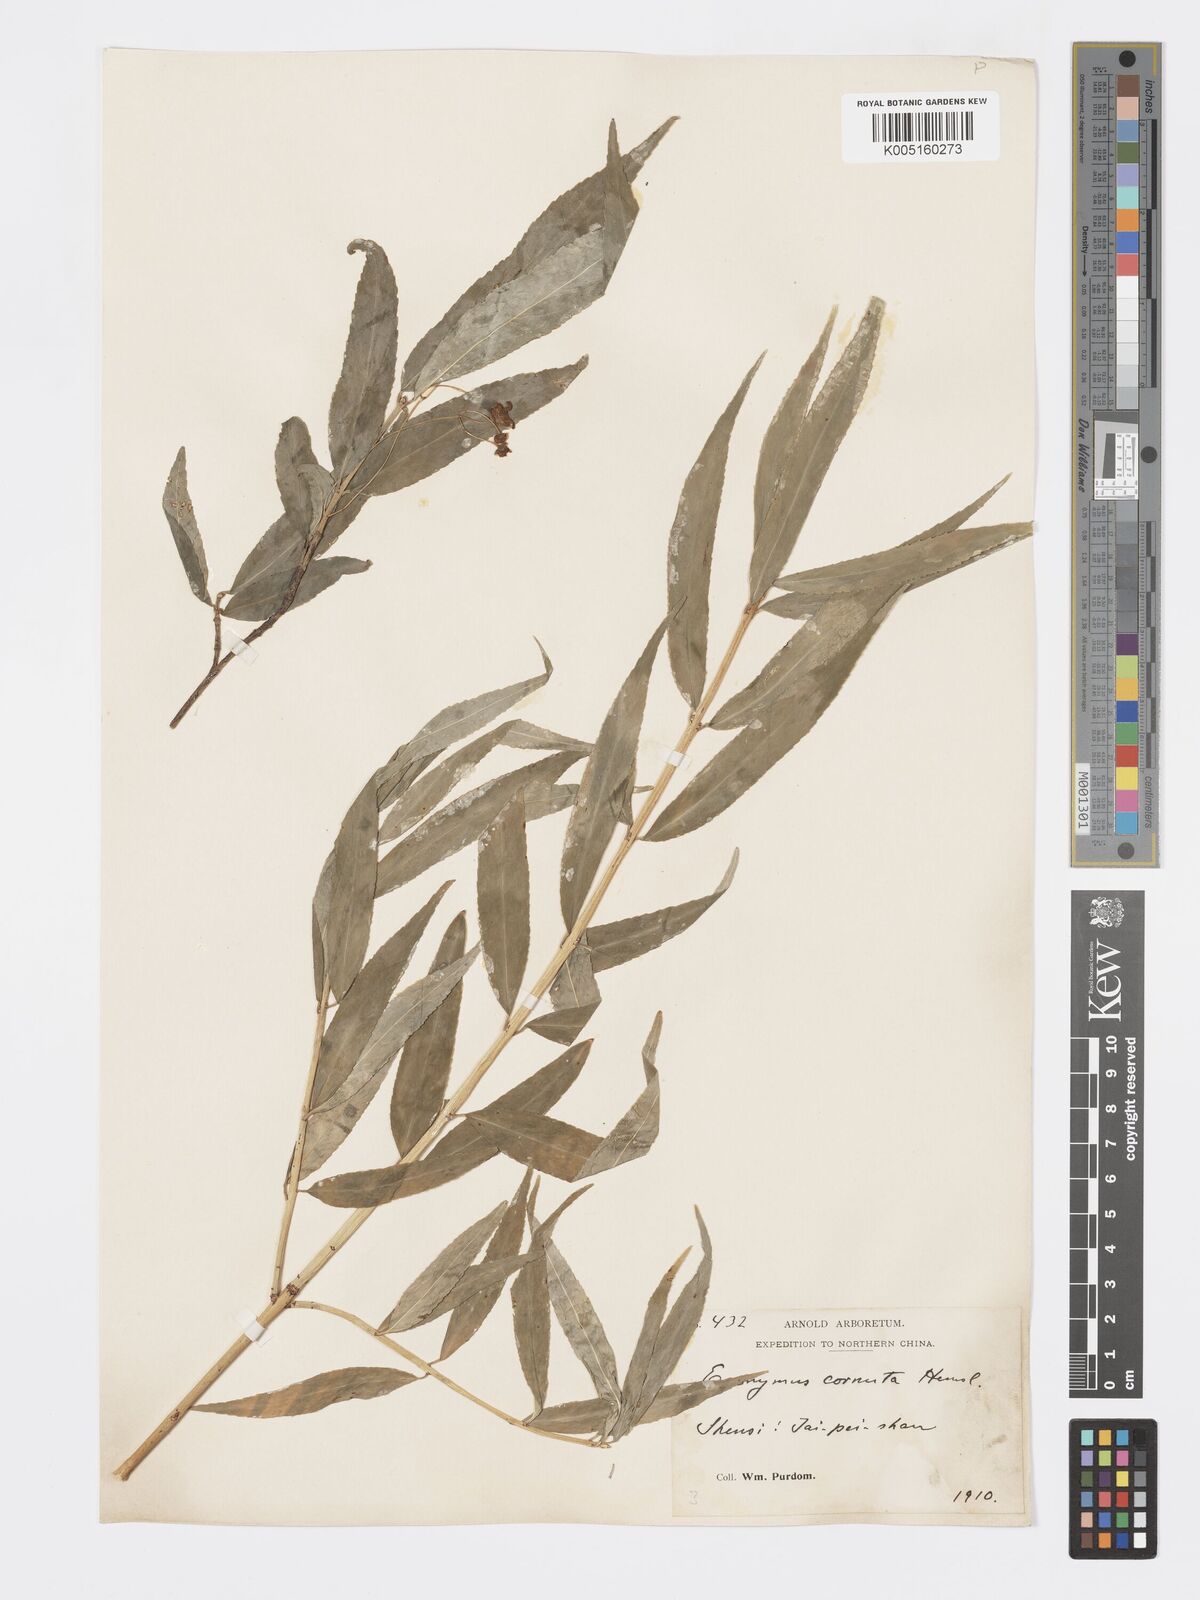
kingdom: Plantae
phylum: Tracheophyta
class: Magnoliopsida
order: Celastrales
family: Celastraceae
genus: Euonymus
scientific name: Euonymus cornutus
